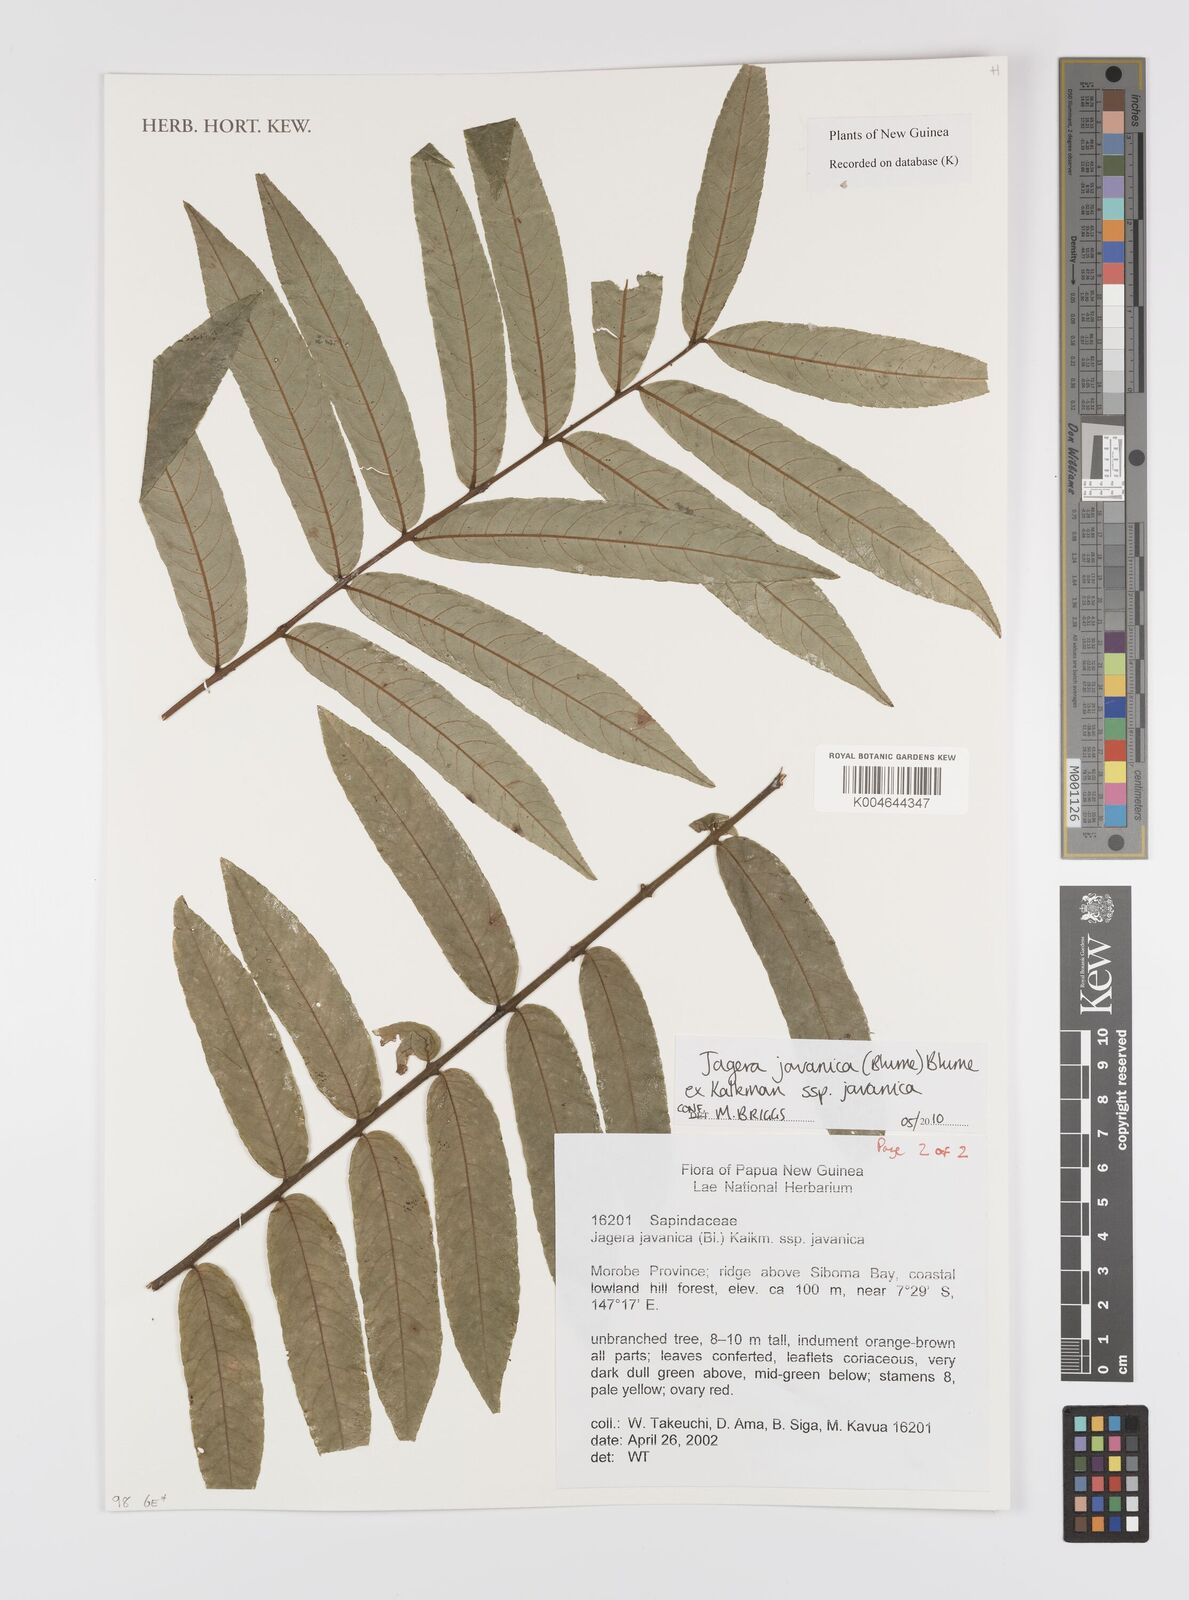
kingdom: Plantae
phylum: Tracheophyta
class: Magnoliopsida
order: Sapindales
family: Sapindaceae
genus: Jagera
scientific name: Jagera javanica
